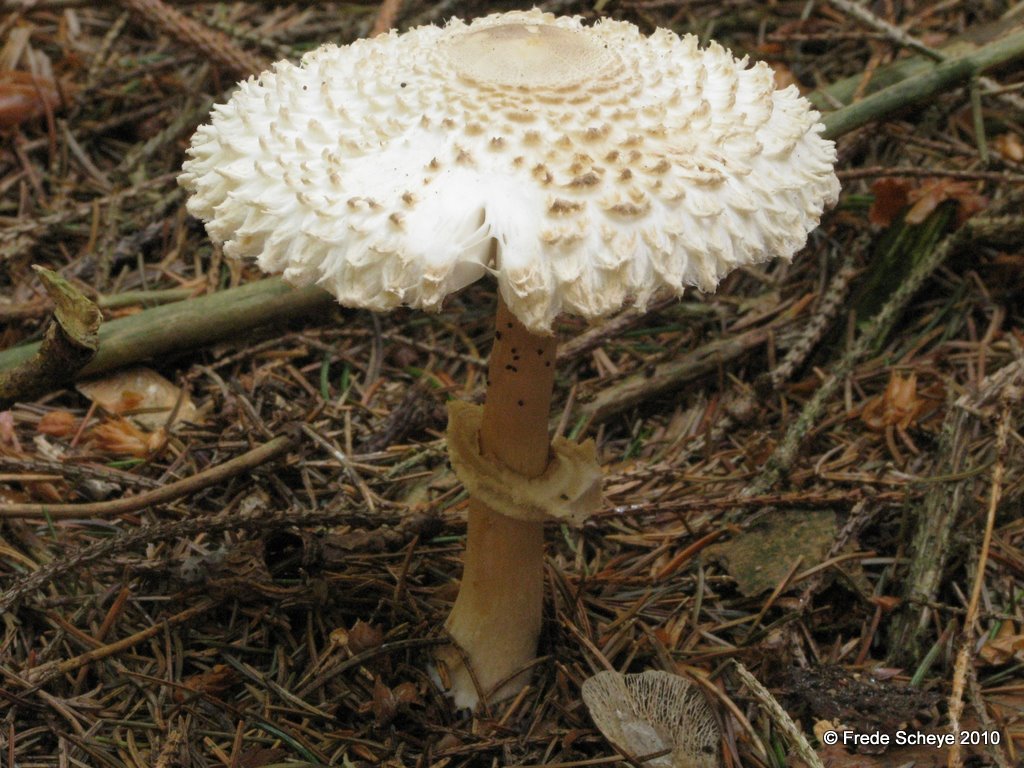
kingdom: Fungi
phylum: Basidiomycota
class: Agaricomycetes
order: Agaricales
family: Agaricaceae
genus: Leucoagaricus
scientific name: Leucoagaricus nympharum
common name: gran-silkehat
